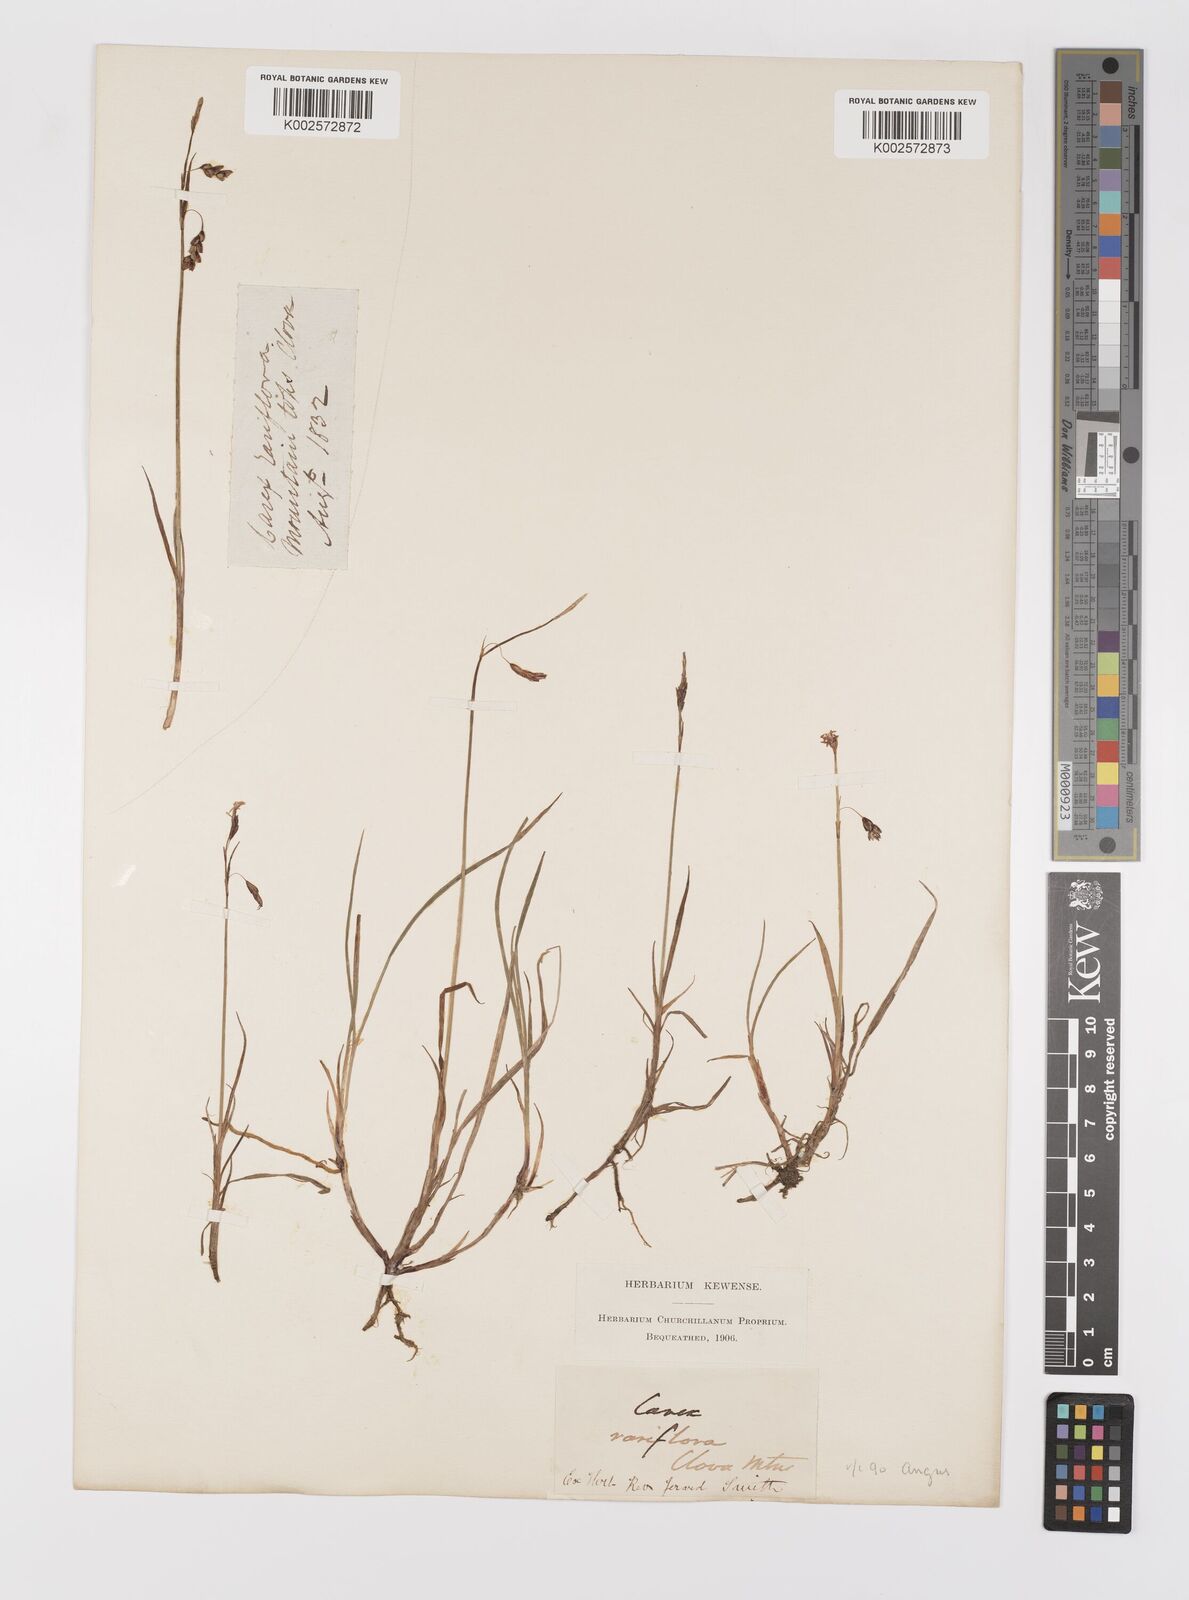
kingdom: Plantae
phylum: Tracheophyta
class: Liliopsida
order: Poales
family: Cyperaceae
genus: Carex
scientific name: Carex rariflora
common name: Loose-flowered alpine sedge
